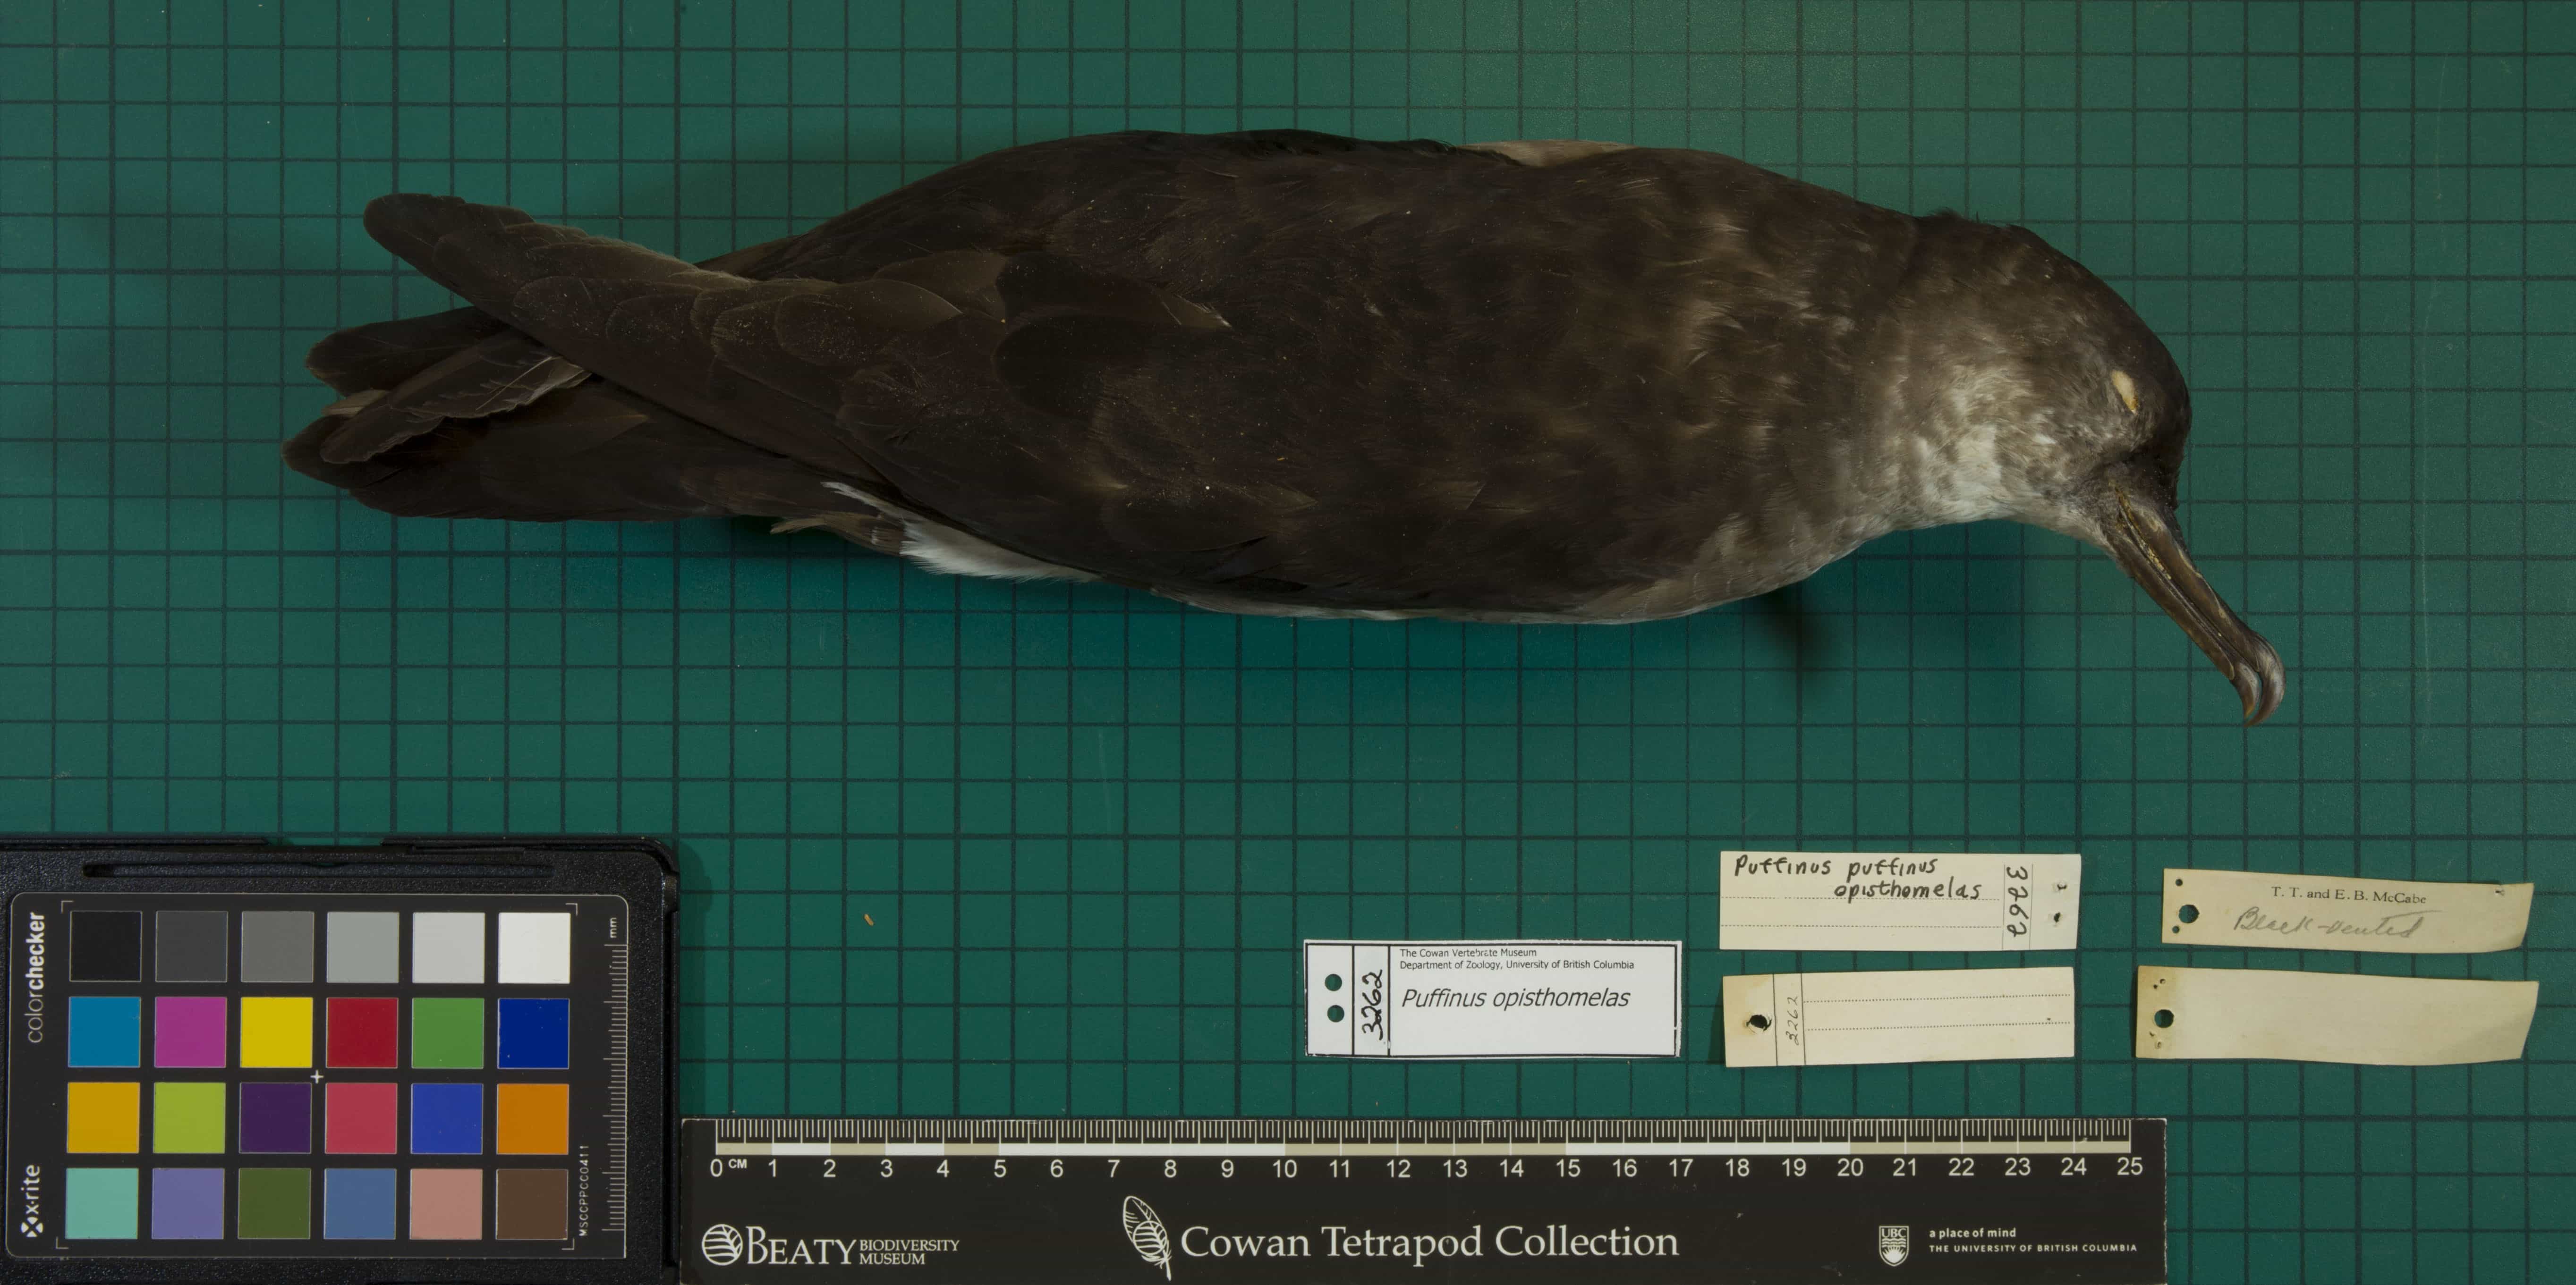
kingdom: Animalia
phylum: Chordata
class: Aves
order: Procellariiformes
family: Procellariidae
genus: Puffinus
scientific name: Puffinus opisthomelas
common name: Black-vented Shearwater
